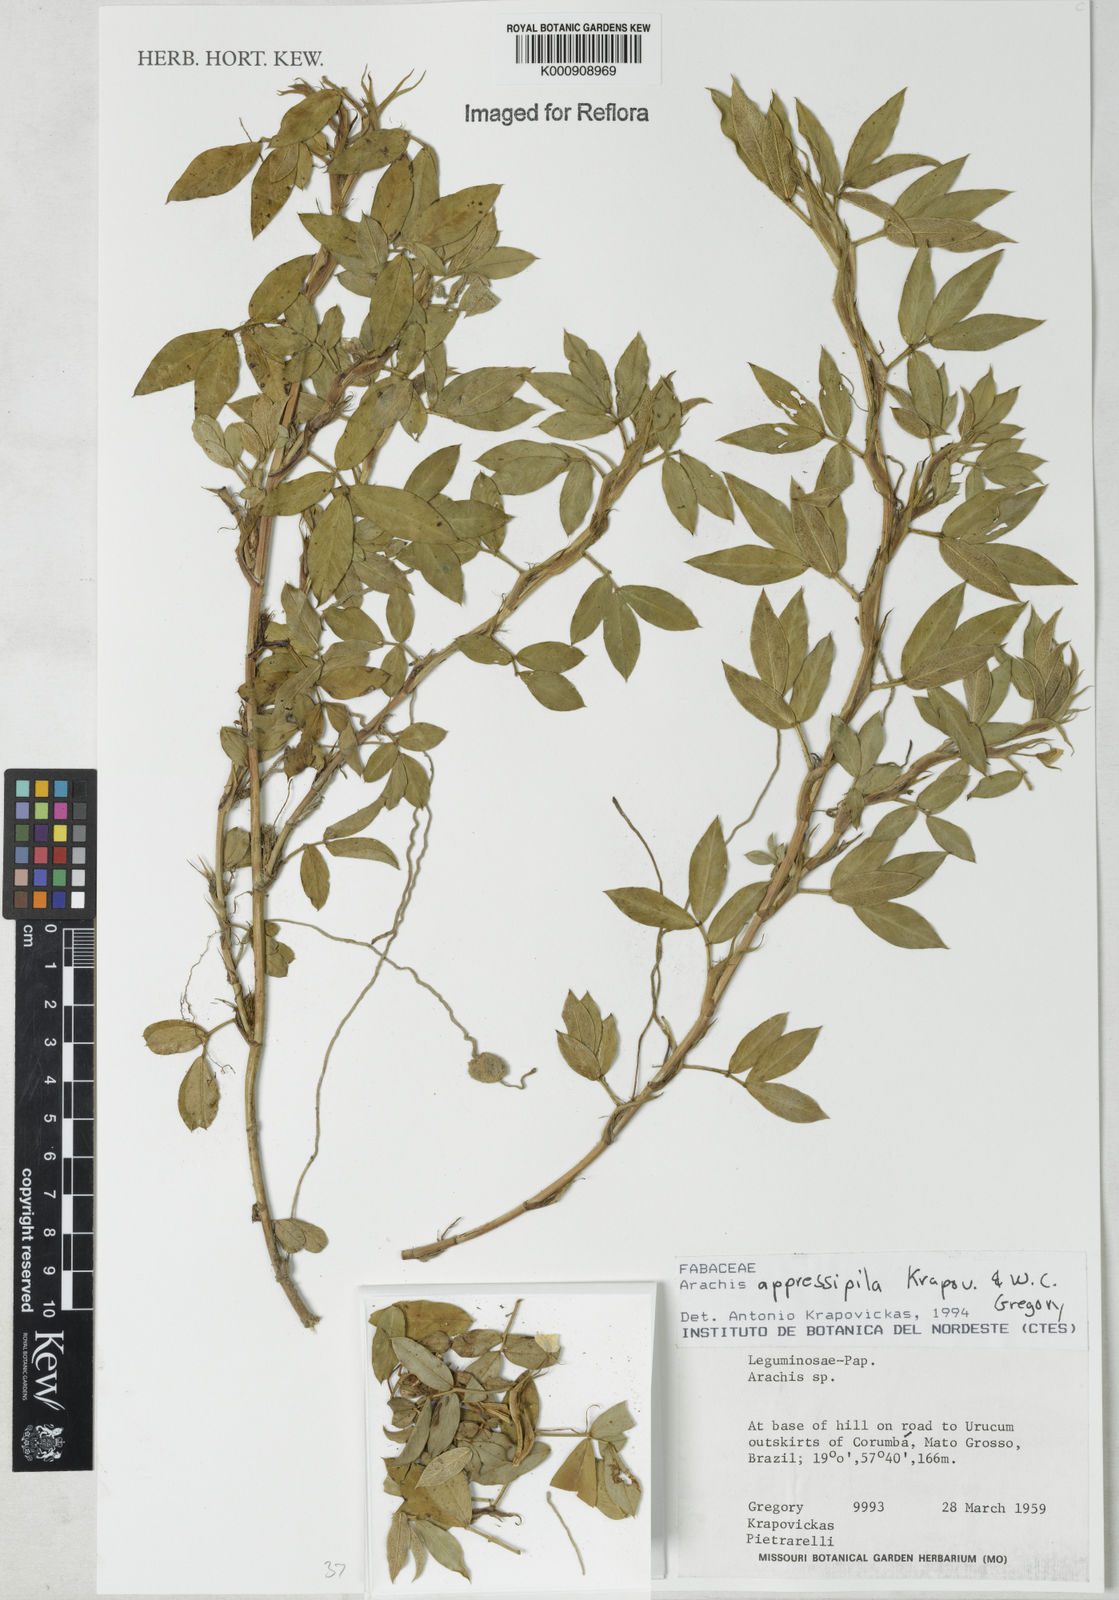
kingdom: Plantae
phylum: Tracheophyta
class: Magnoliopsida
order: Fabales
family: Fabaceae
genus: Arachis
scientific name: Arachis appressipila
